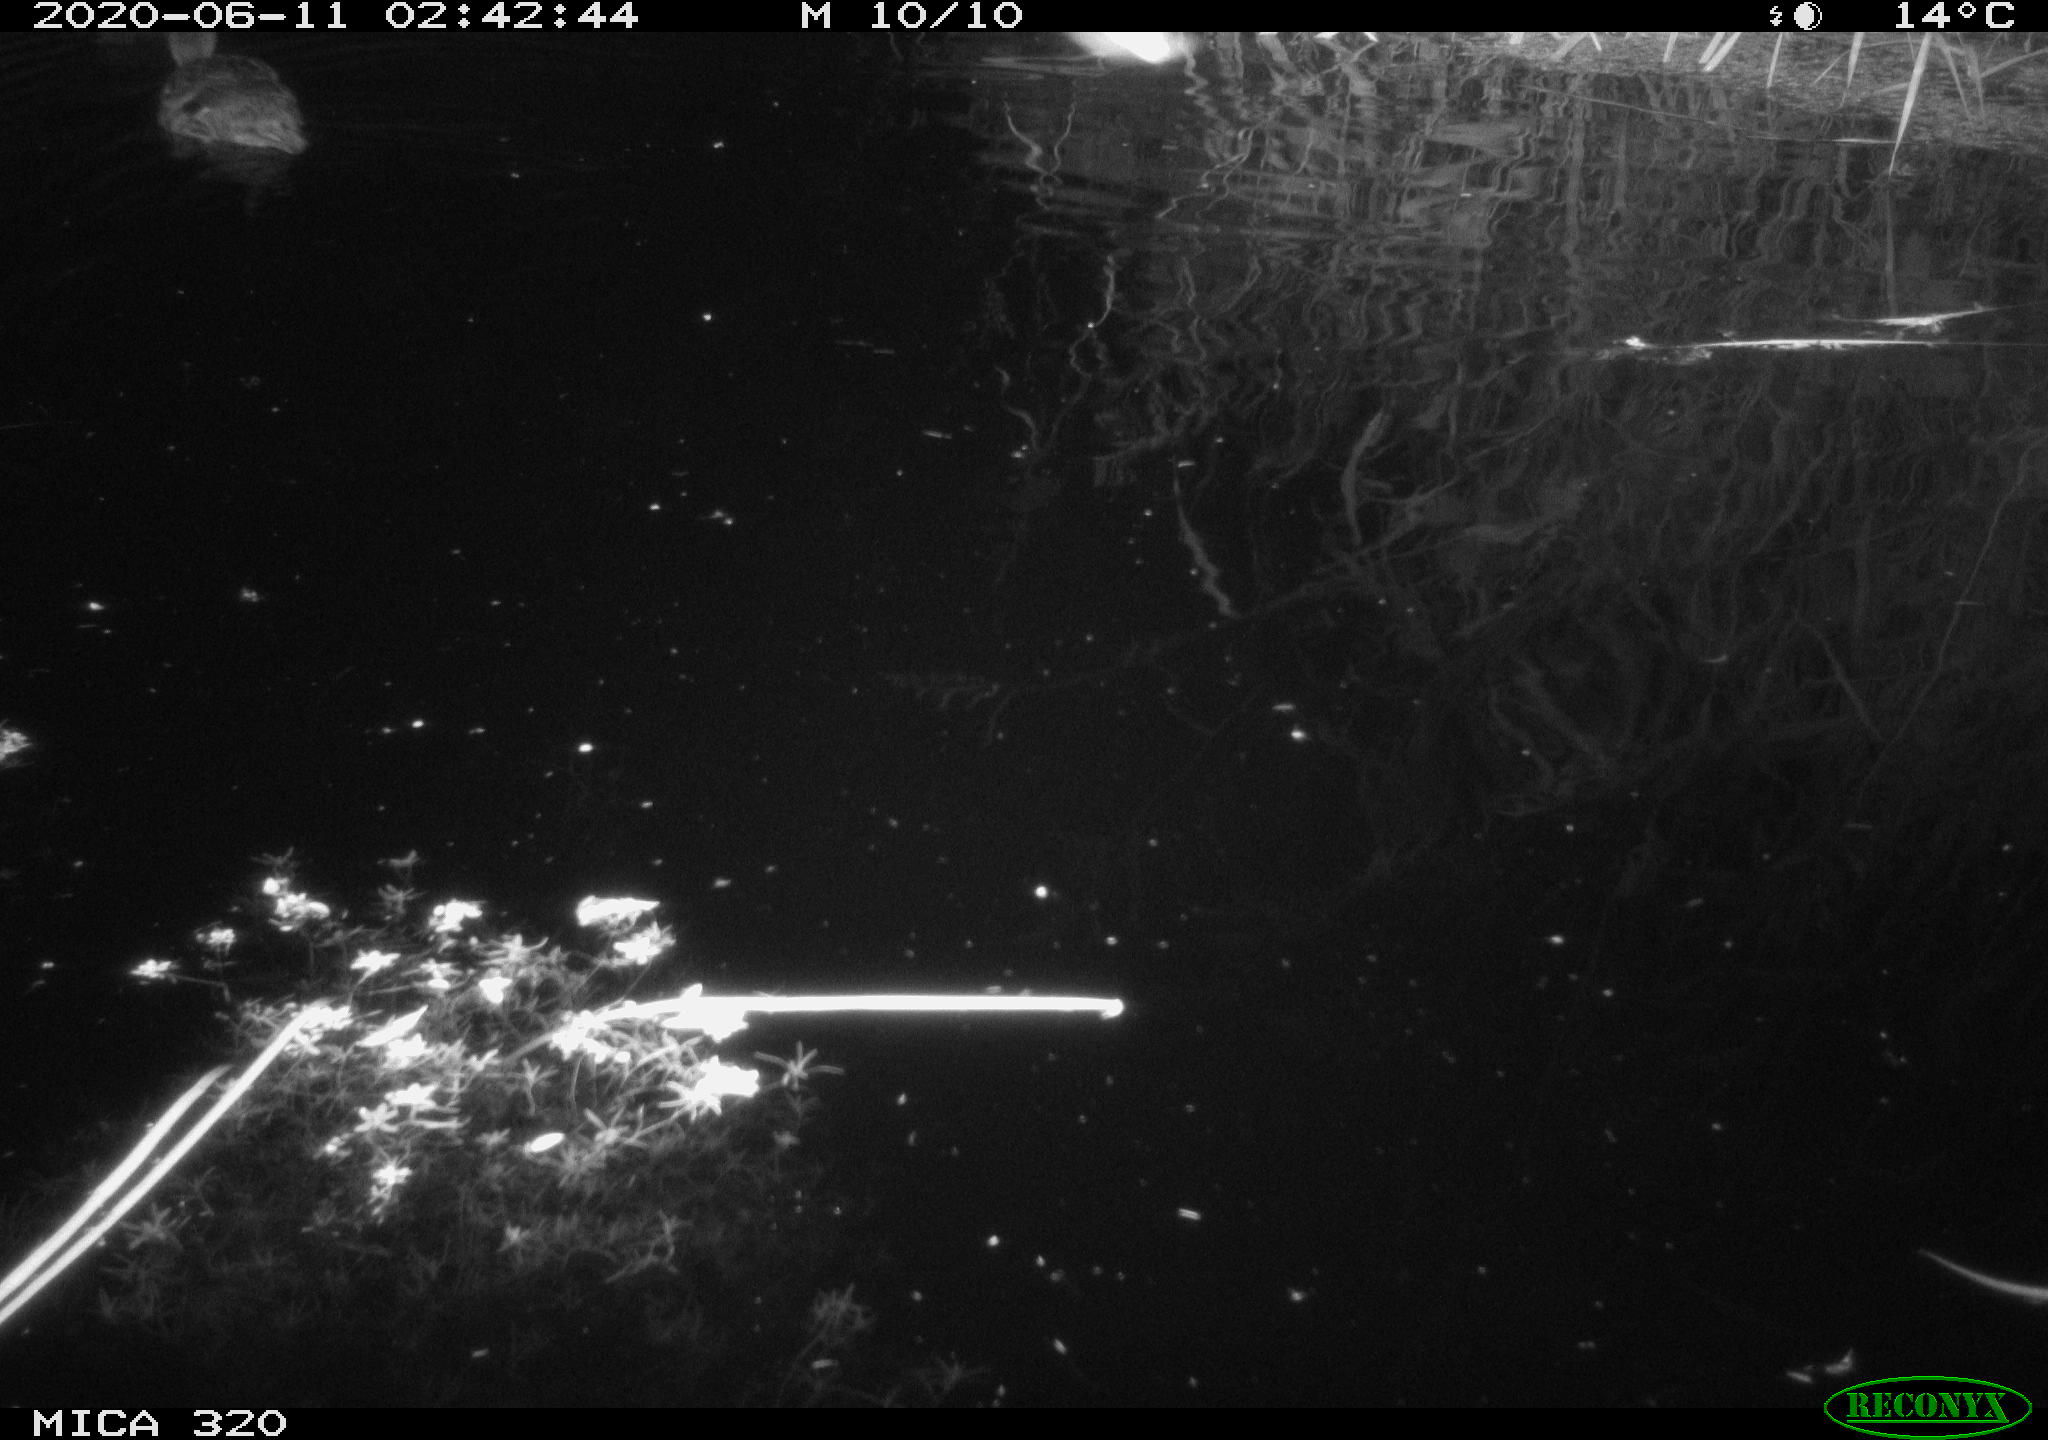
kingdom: Animalia
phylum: Chordata
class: Aves
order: Anseriformes
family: Anatidae
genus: Anas
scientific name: Anas platyrhynchos
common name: Mallard
